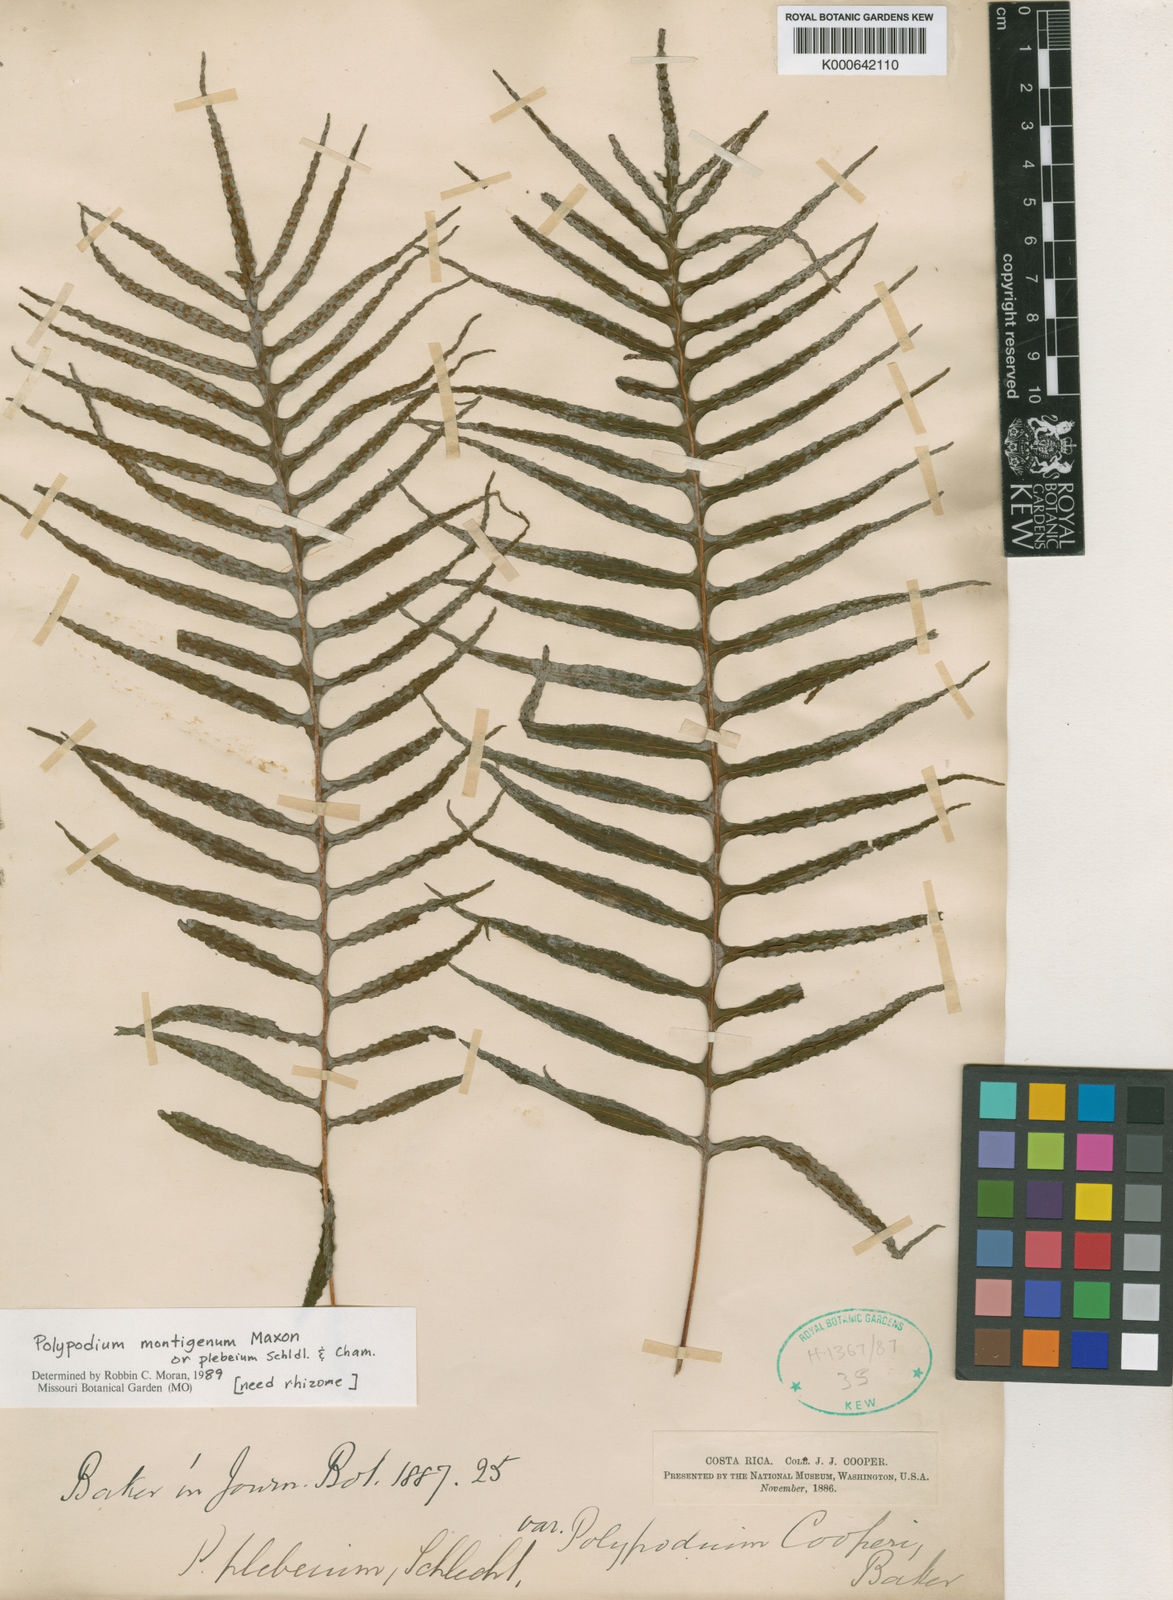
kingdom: Plantae
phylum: Tracheophyta
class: Polypodiopsida
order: Polypodiales
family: Polypodiaceae
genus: Polypodium
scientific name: Polypodium
